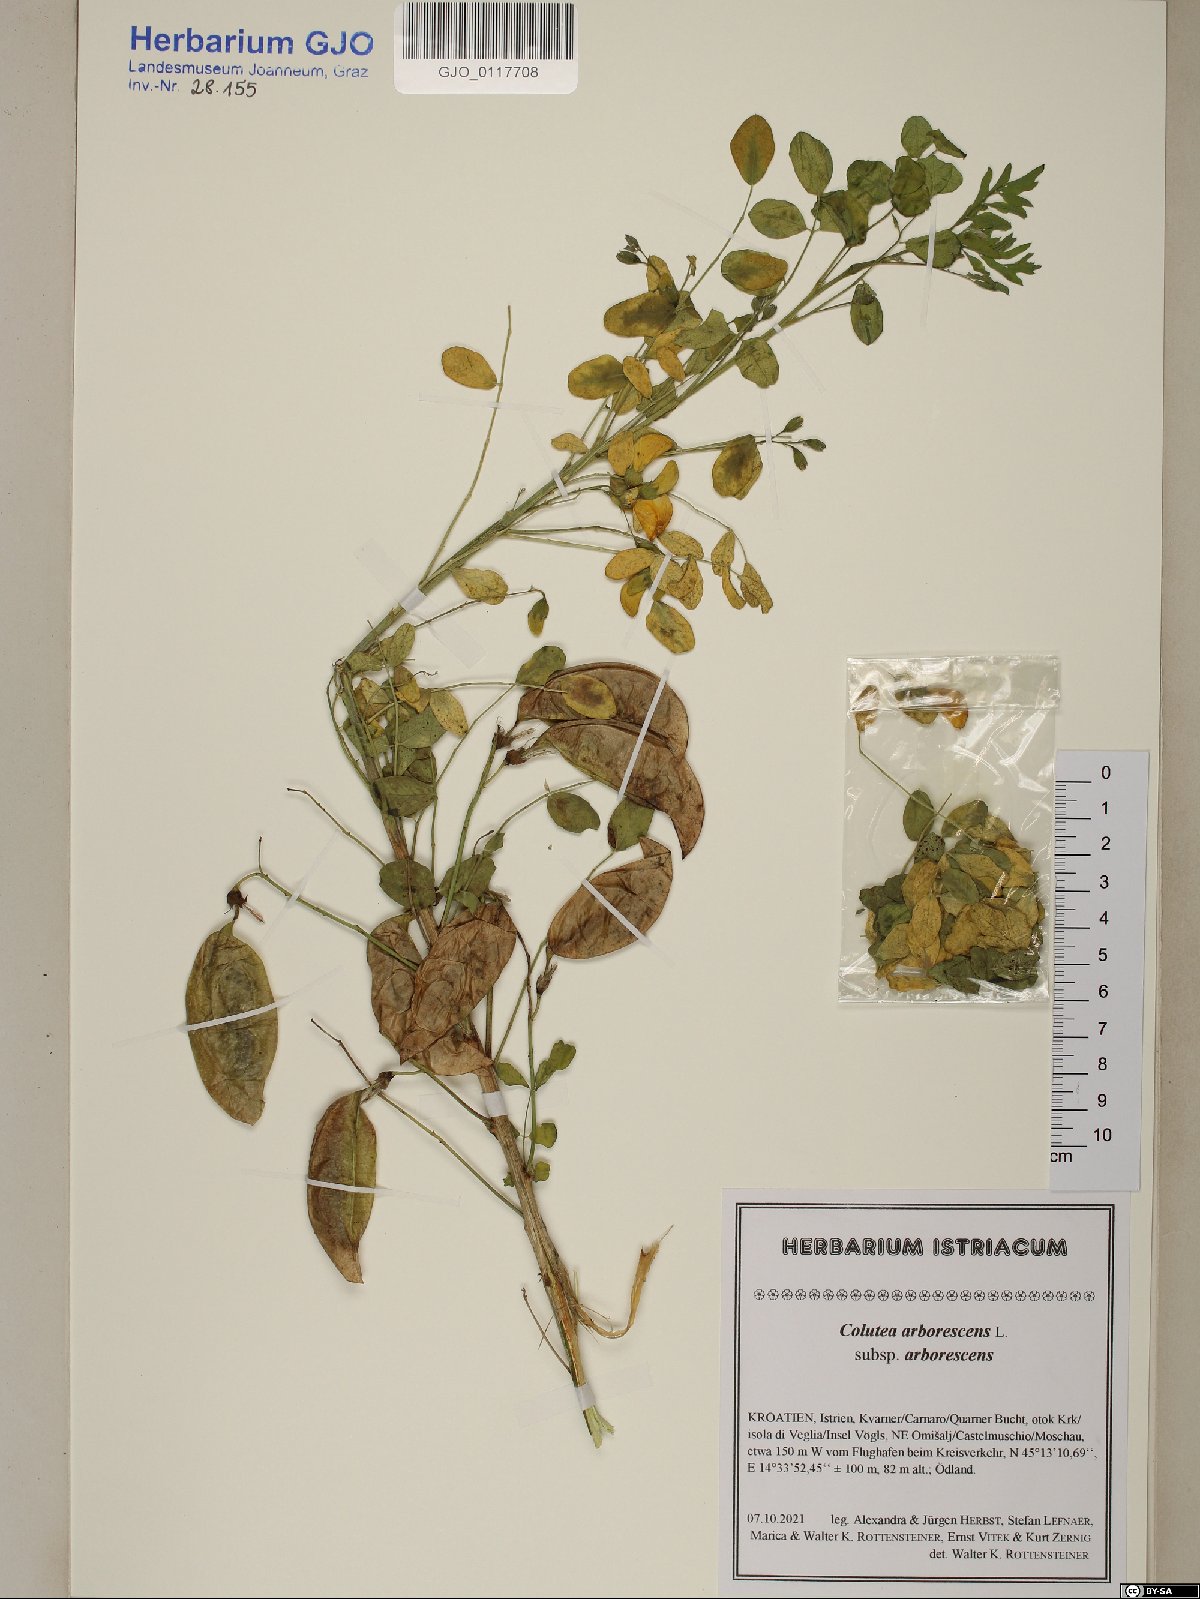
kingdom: Plantae
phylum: Tracheophyta
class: Magnoliopsida
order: Fabales
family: Fabaceae
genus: Colutea
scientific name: Colutea arborescens
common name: Bladder-senna
